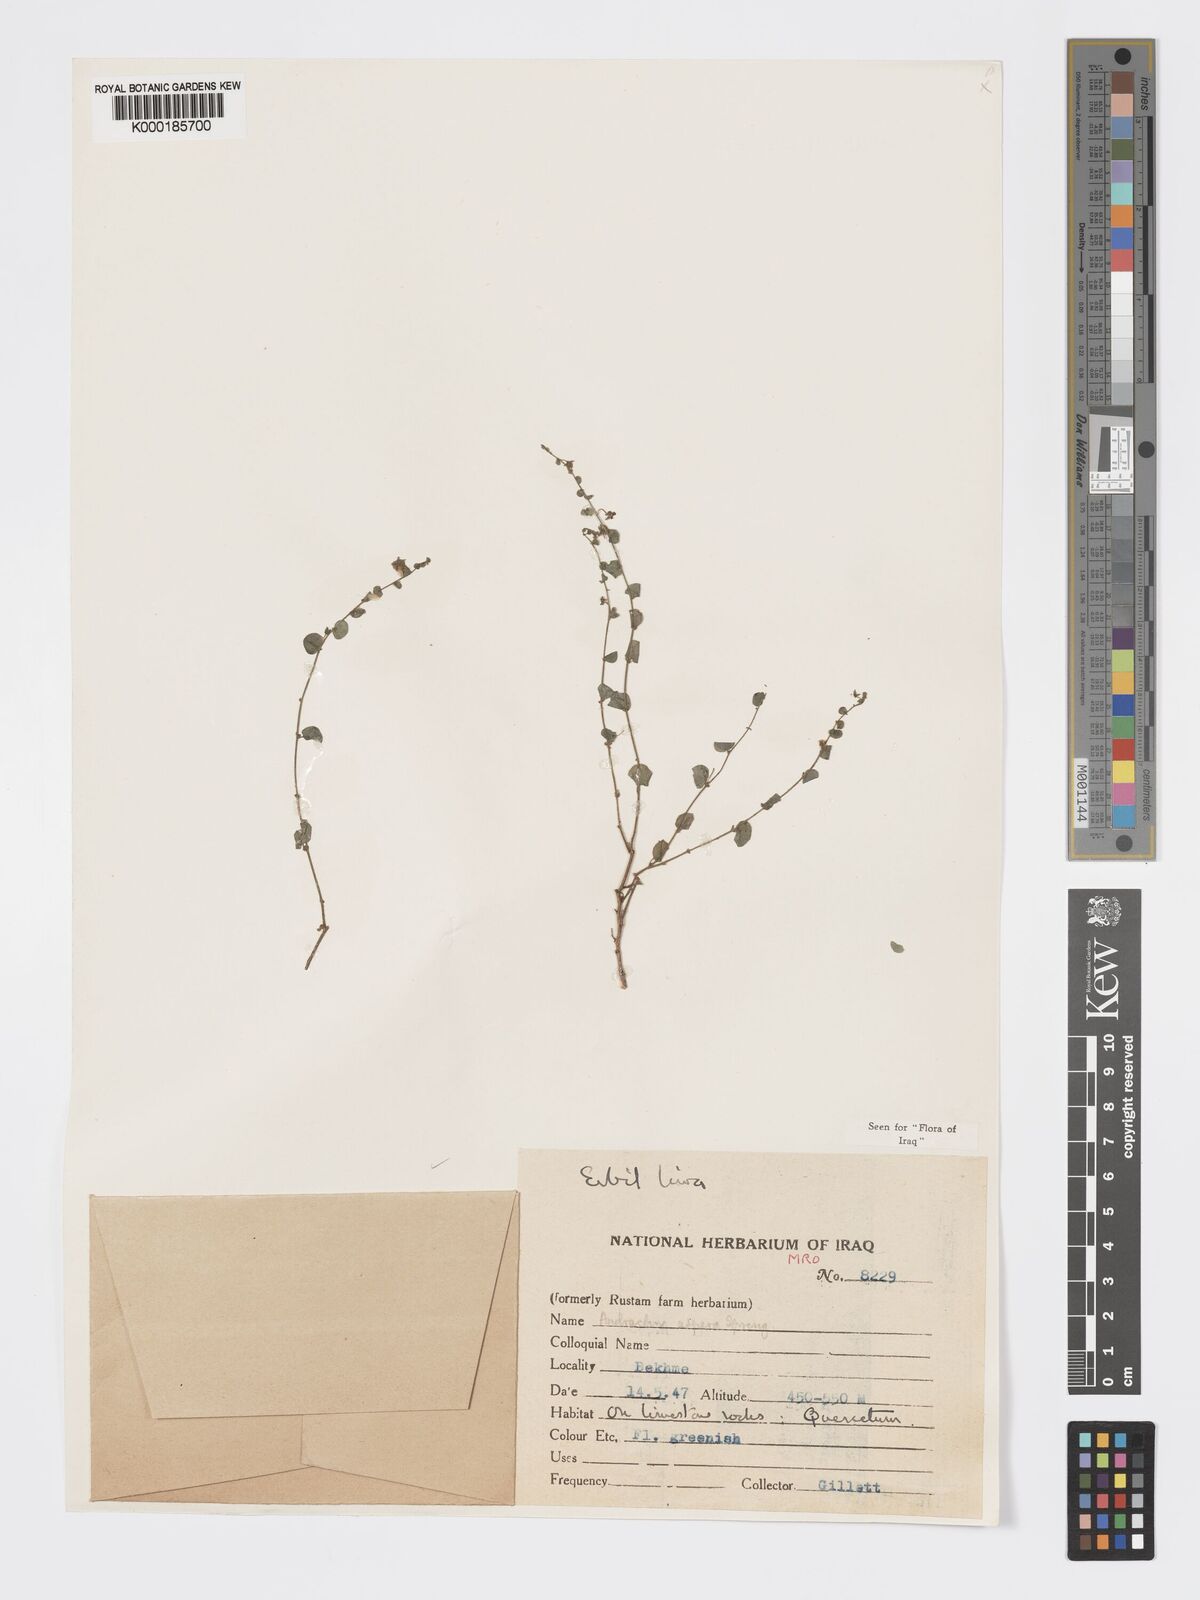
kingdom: Plantae
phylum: Tracheophyta
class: Magnoliopsida
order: Malpighiales
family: Phyllanthaceae
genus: Andrachne
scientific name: Andrachne aspera
